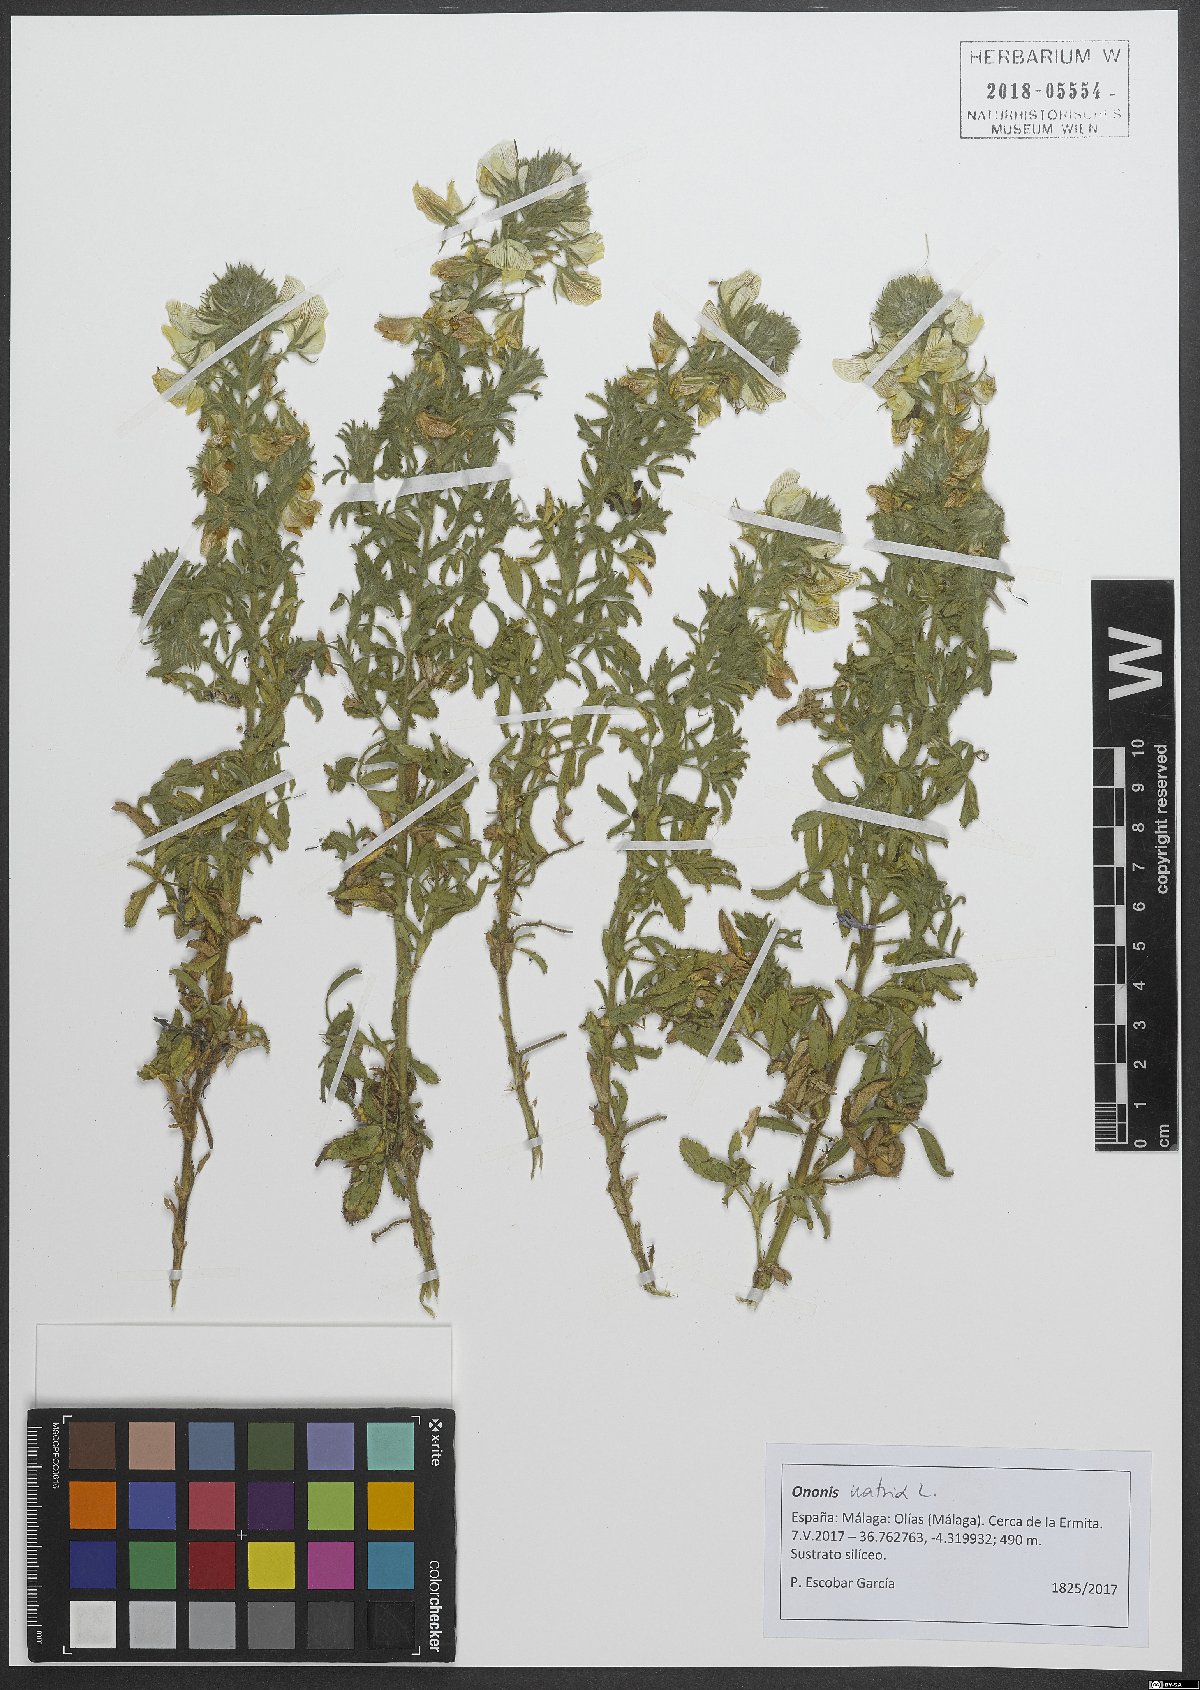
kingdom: Plantae
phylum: Tracheophyta
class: Magnoliopsida
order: Fabales
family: Fabaceae
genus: Ononis
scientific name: Ononis natrix
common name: Yellow restharrow
